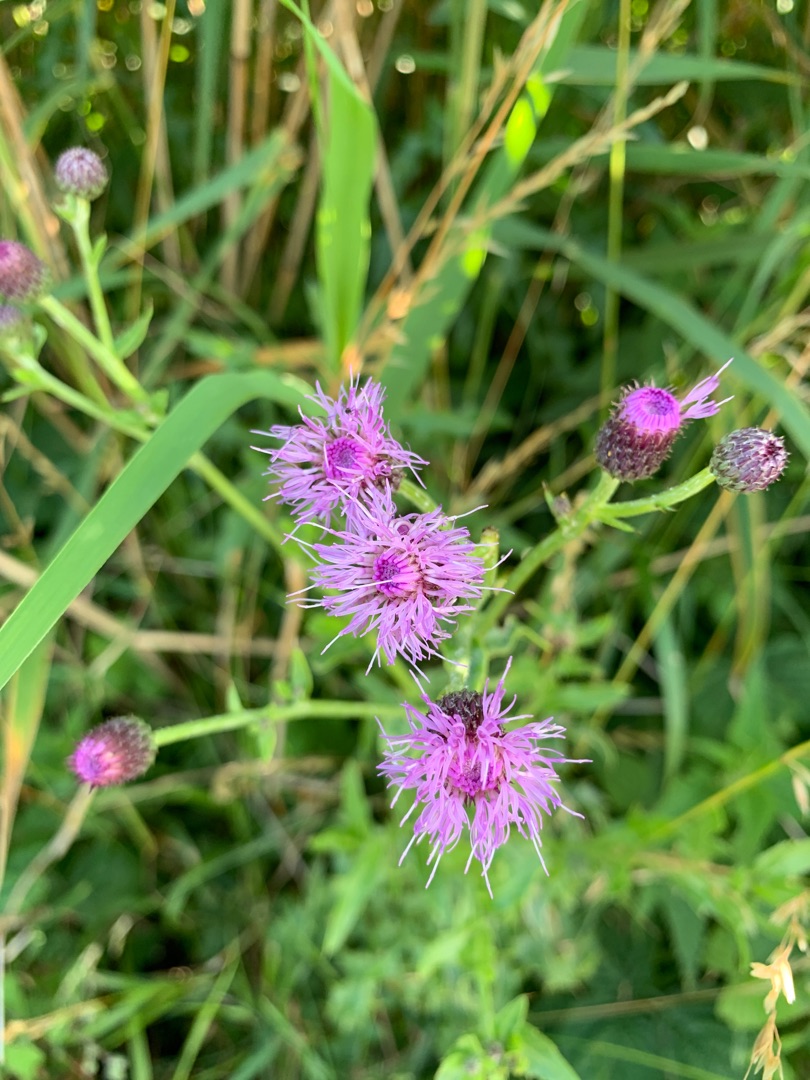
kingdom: Plantae
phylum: Tracheophyta
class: Magnoliopsida
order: Asterales
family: Asteraceae
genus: Cirsium
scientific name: Cirsium arvense
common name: Ager-tidsel
